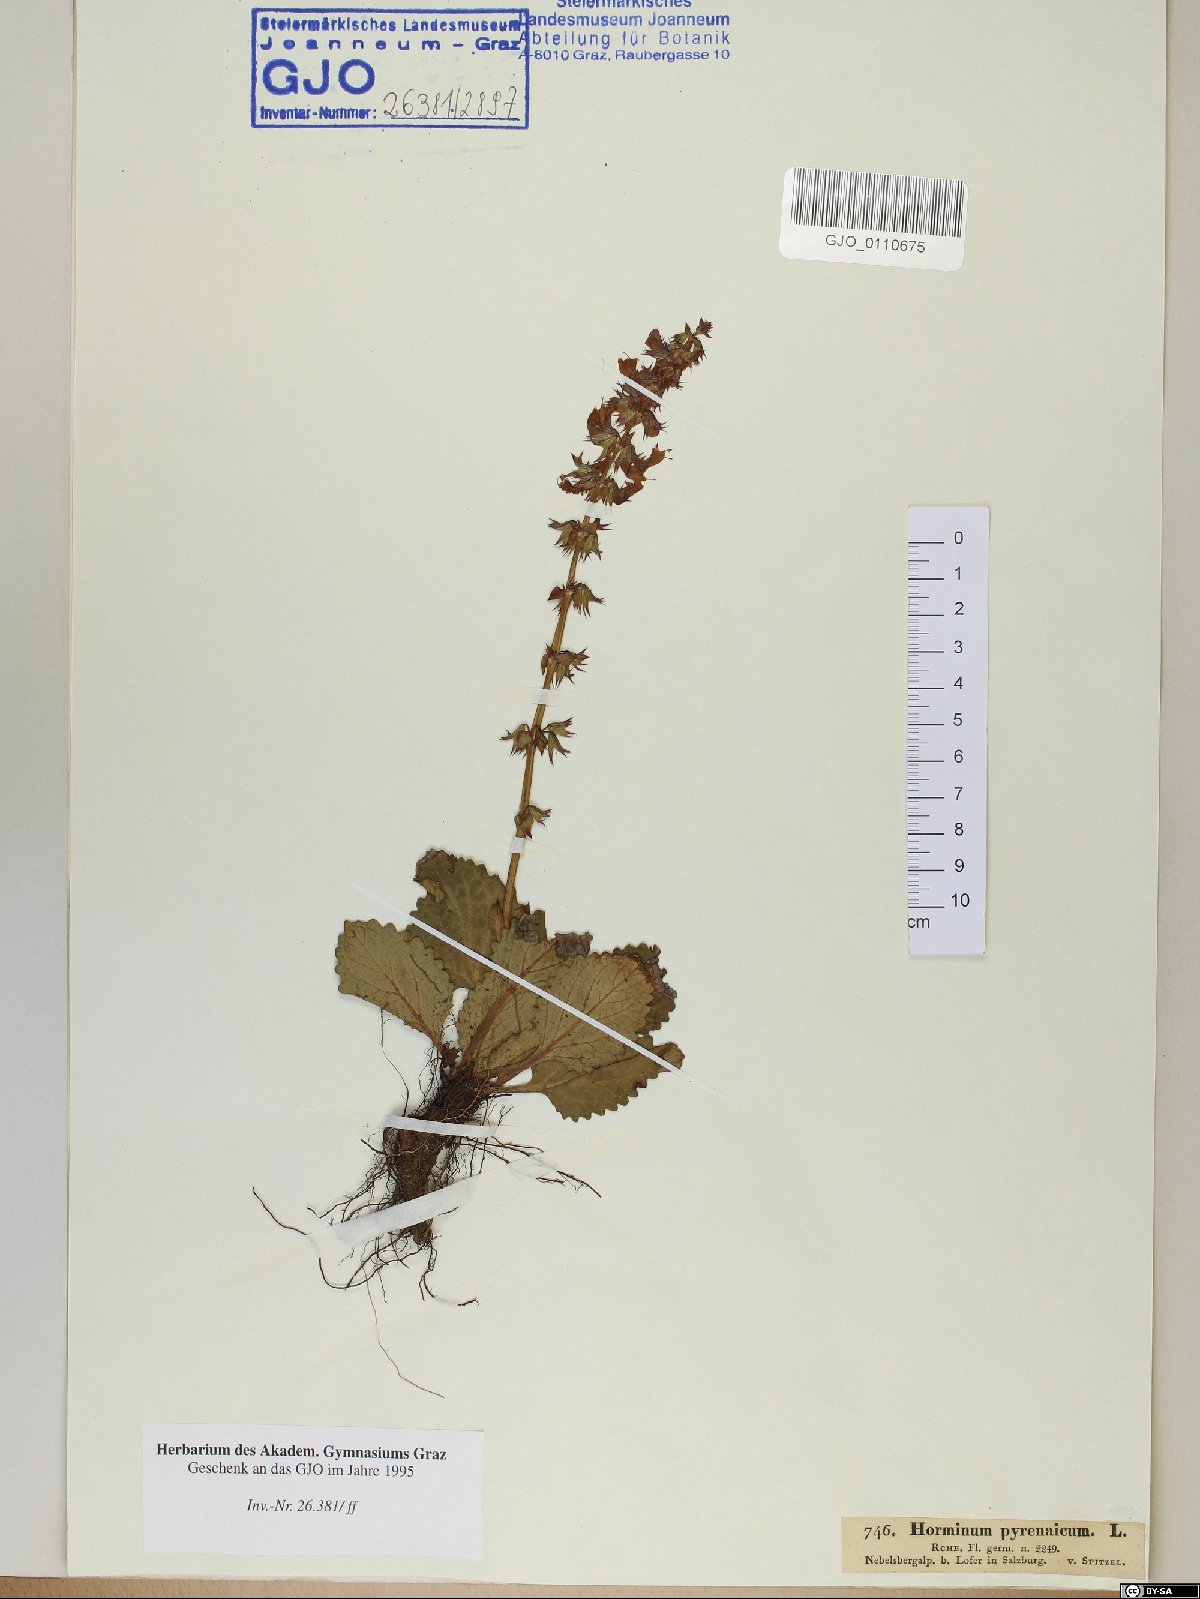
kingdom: Plantae
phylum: Tracheophyta
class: Magnoliopsida
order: Lamiales
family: Lamiaceae
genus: Horminum
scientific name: Horminum pyrenaicum
